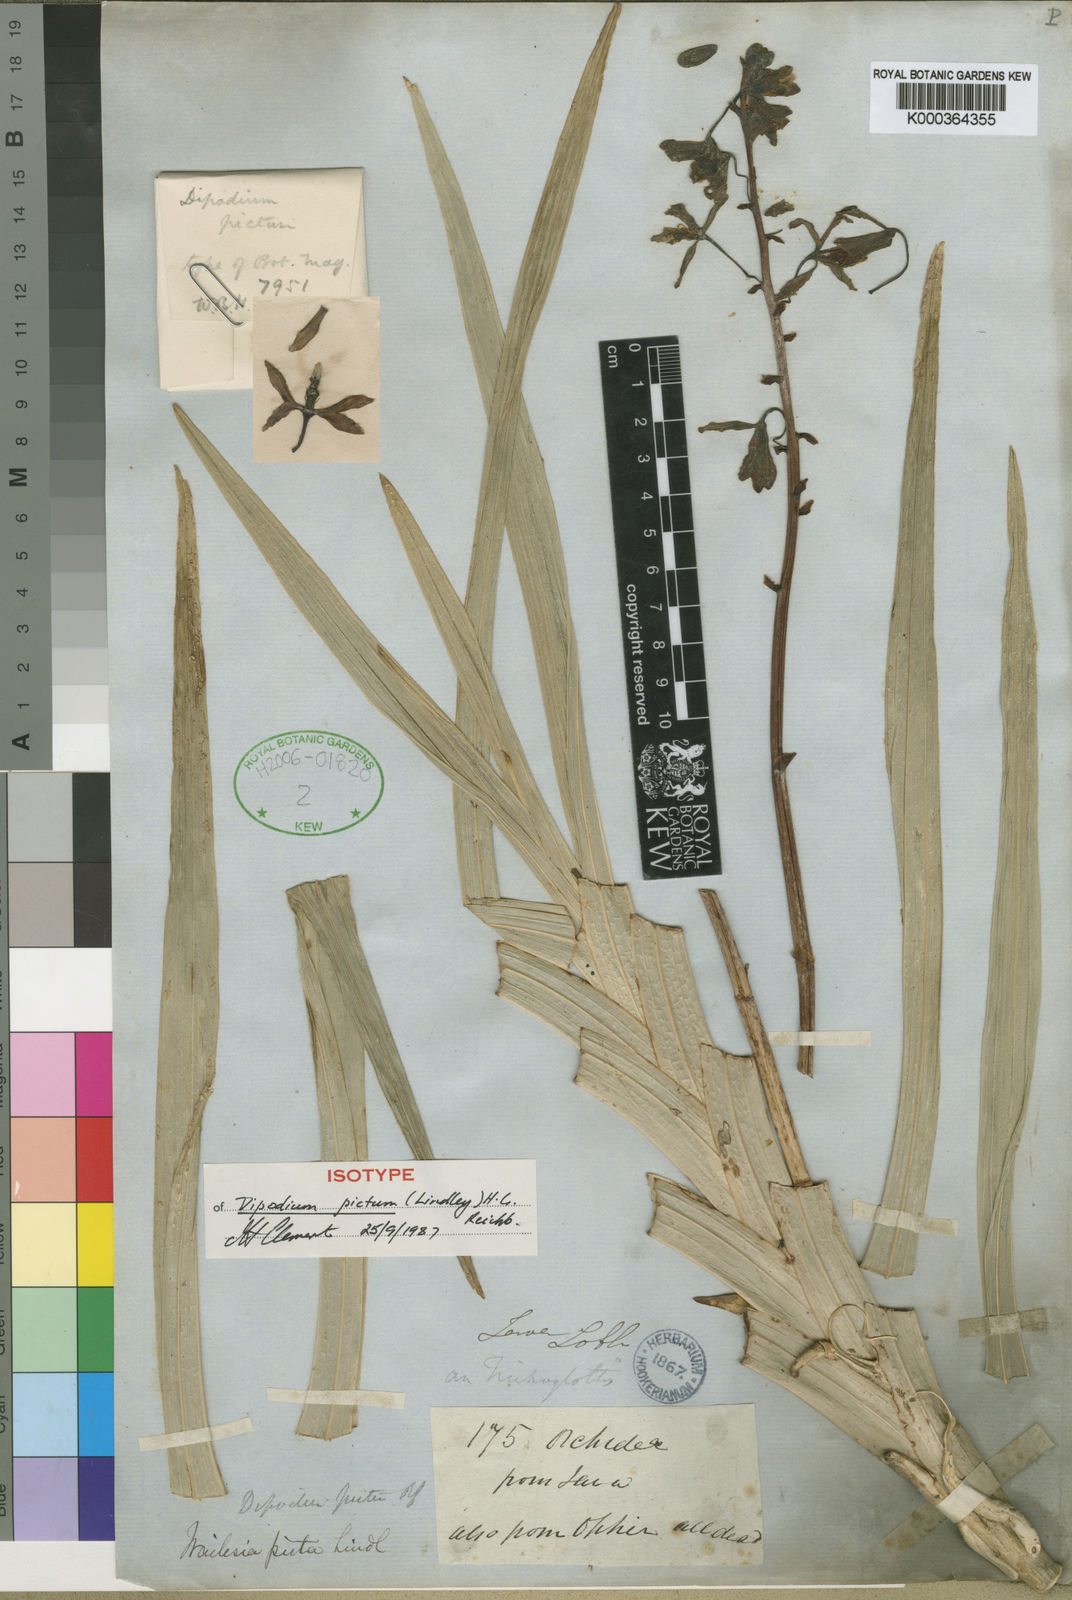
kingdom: Plantae
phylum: Tracheophyta
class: Liliopsida
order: Asparagales
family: Orchidaceae
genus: Dipodium
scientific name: Dipodium pictum
